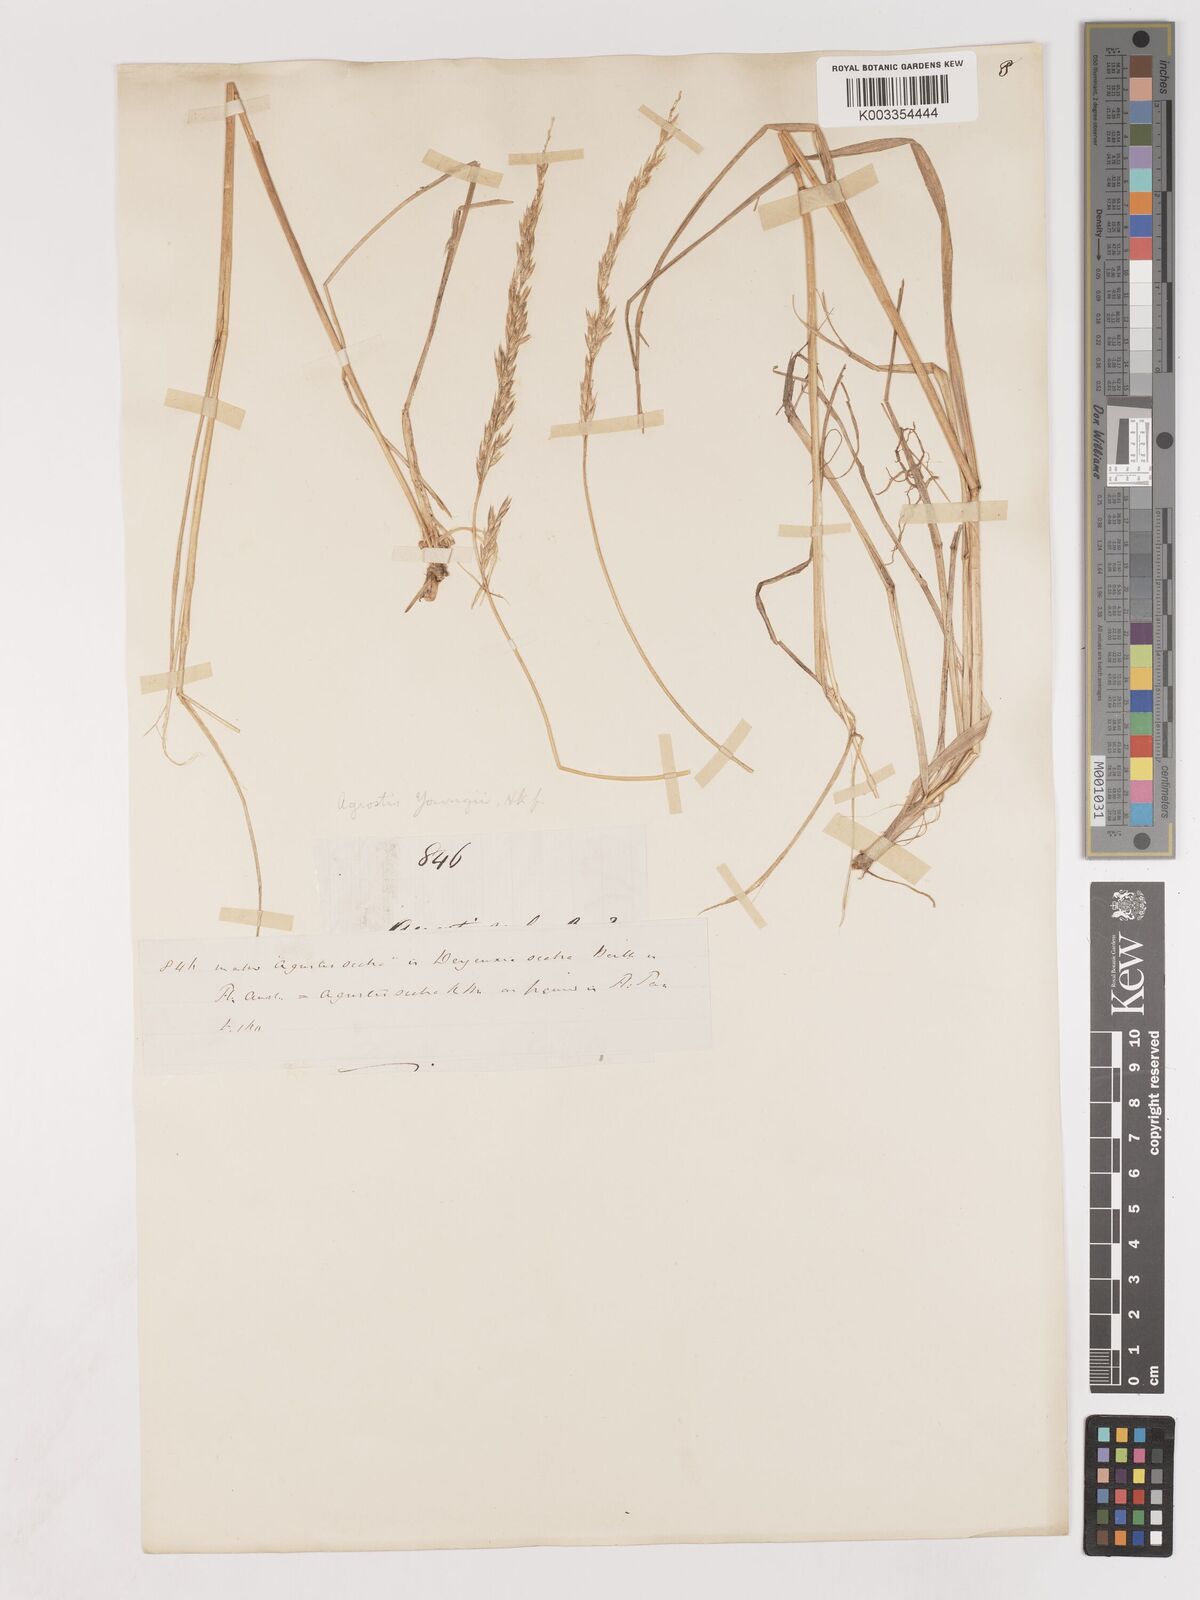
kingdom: Plantae
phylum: Tracheophyta
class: Liliopsida
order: Poales
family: Poaceae
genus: Calamagrostis
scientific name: Calamagrostis youngii
